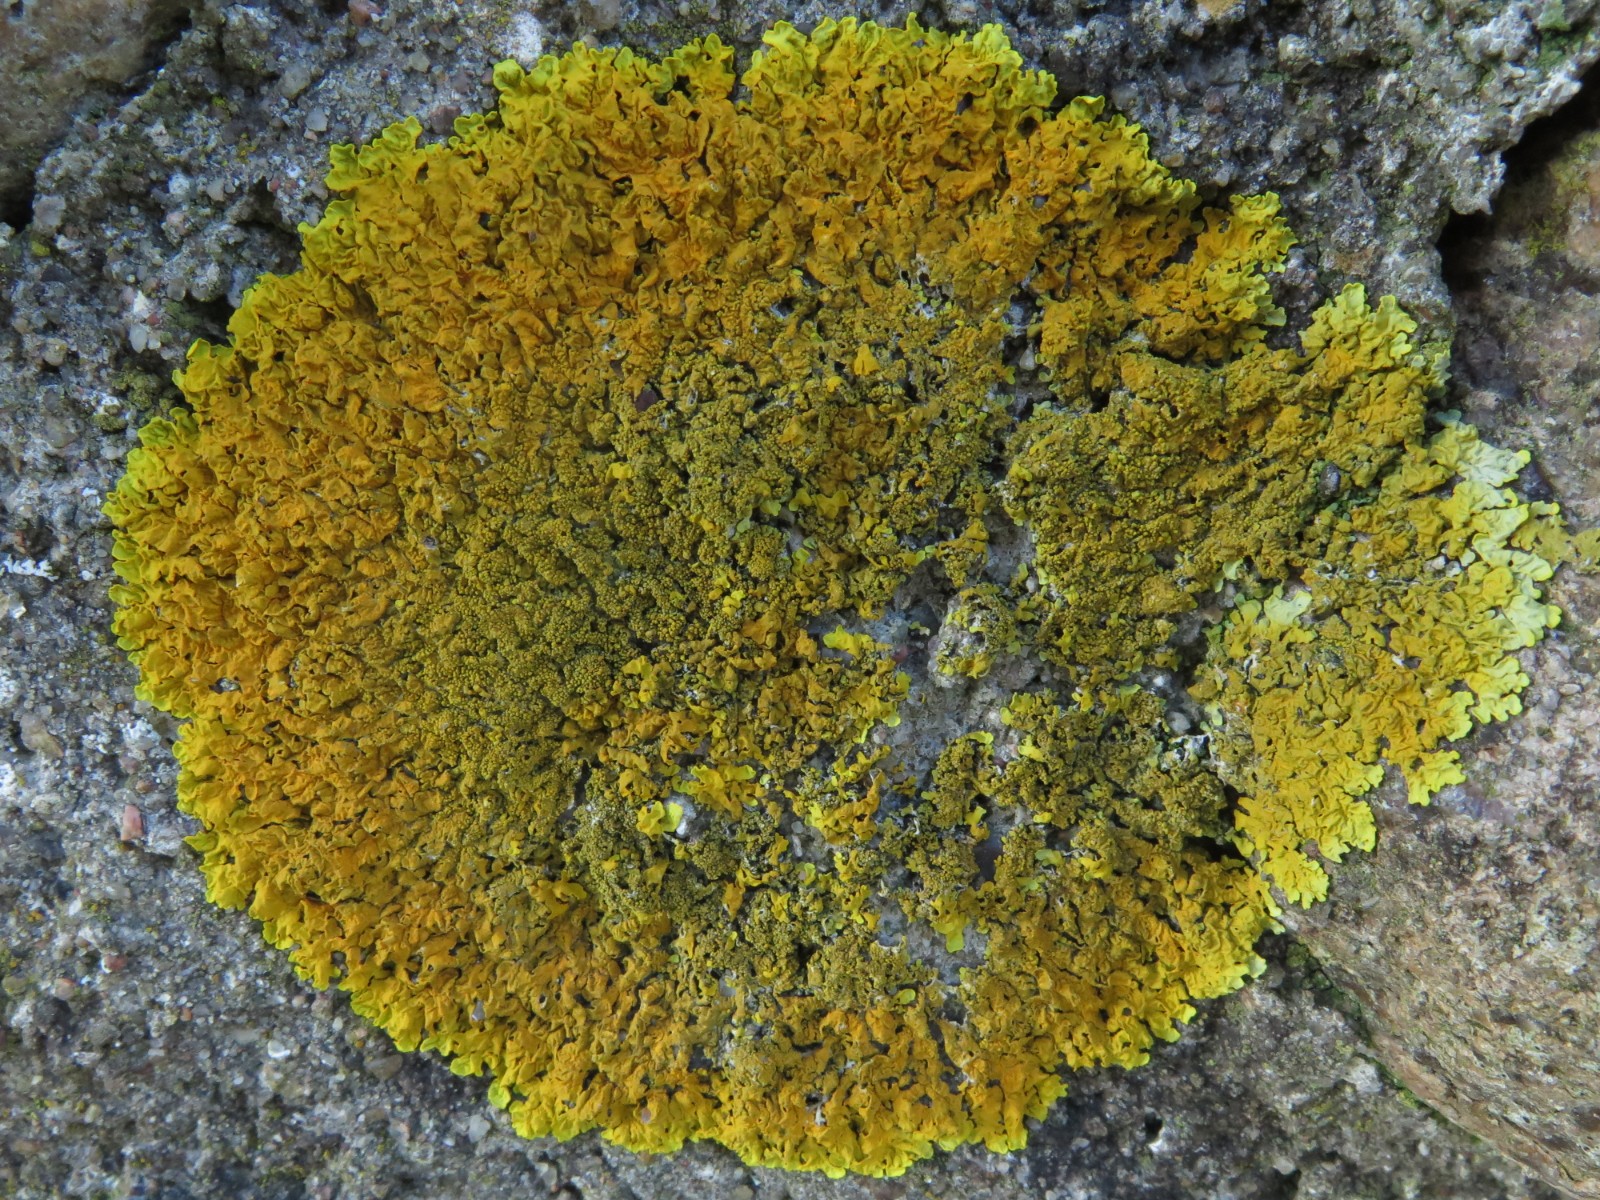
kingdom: Fungi
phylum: Ascomycota
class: Lecanoromycetes
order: Teloschistales
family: Teloschistaceae
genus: Xanthoria
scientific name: Xanthoria calcicola
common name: vortet væggelav
